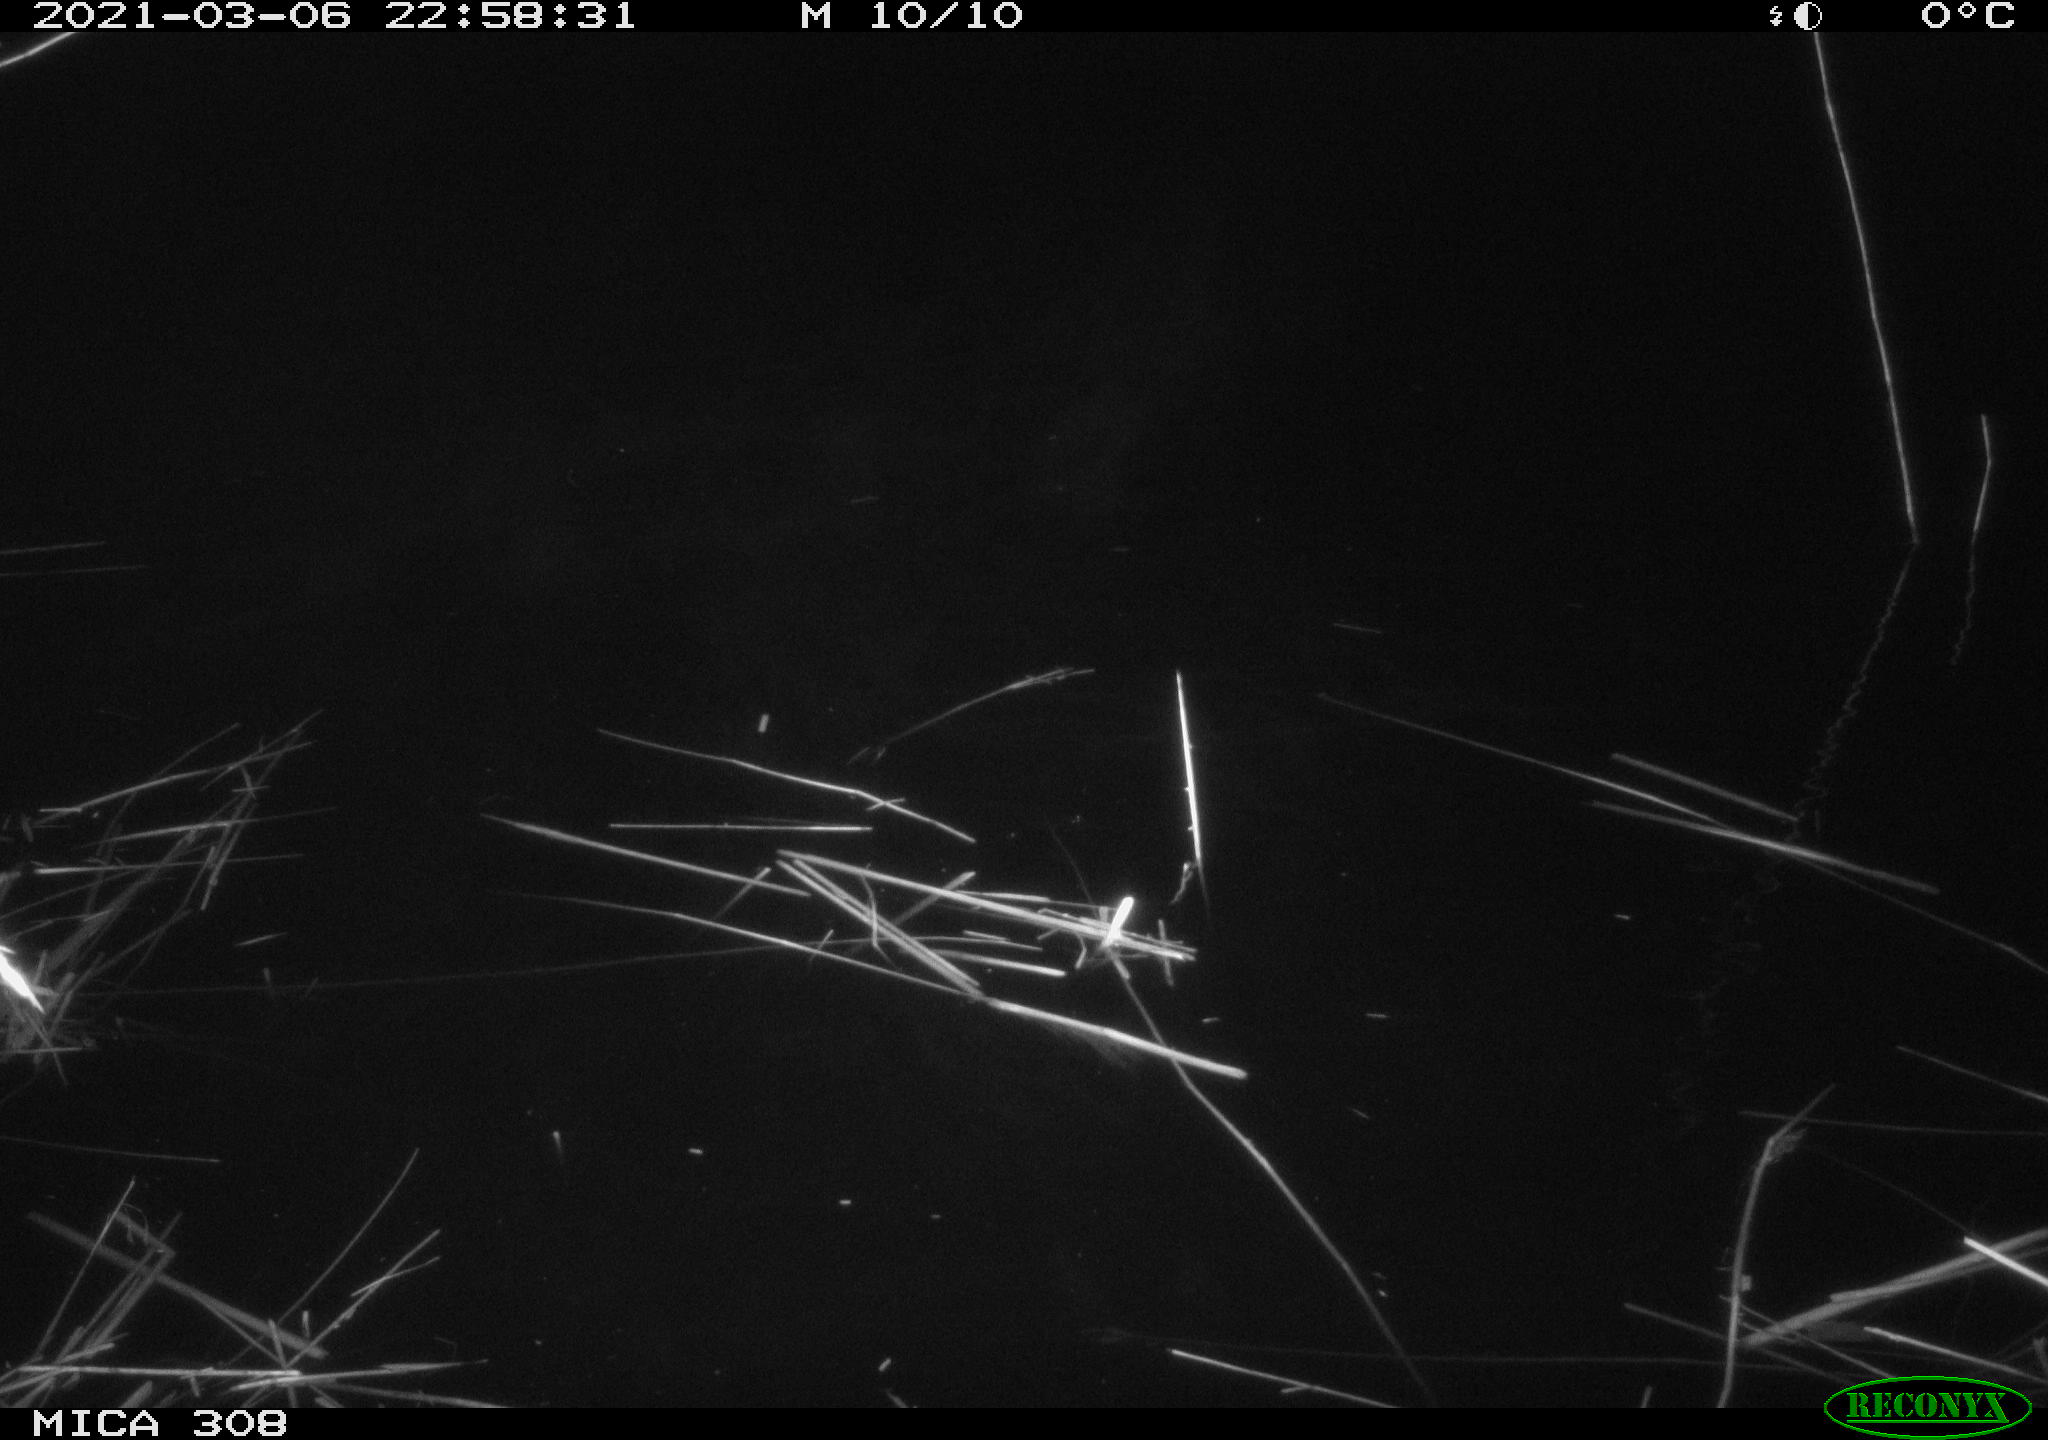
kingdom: Animalia
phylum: Chordata
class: Mammalia
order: Rodentia
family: Cricetidae
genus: Ondatra
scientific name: Ondatra zibethicus
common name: Muskrat
